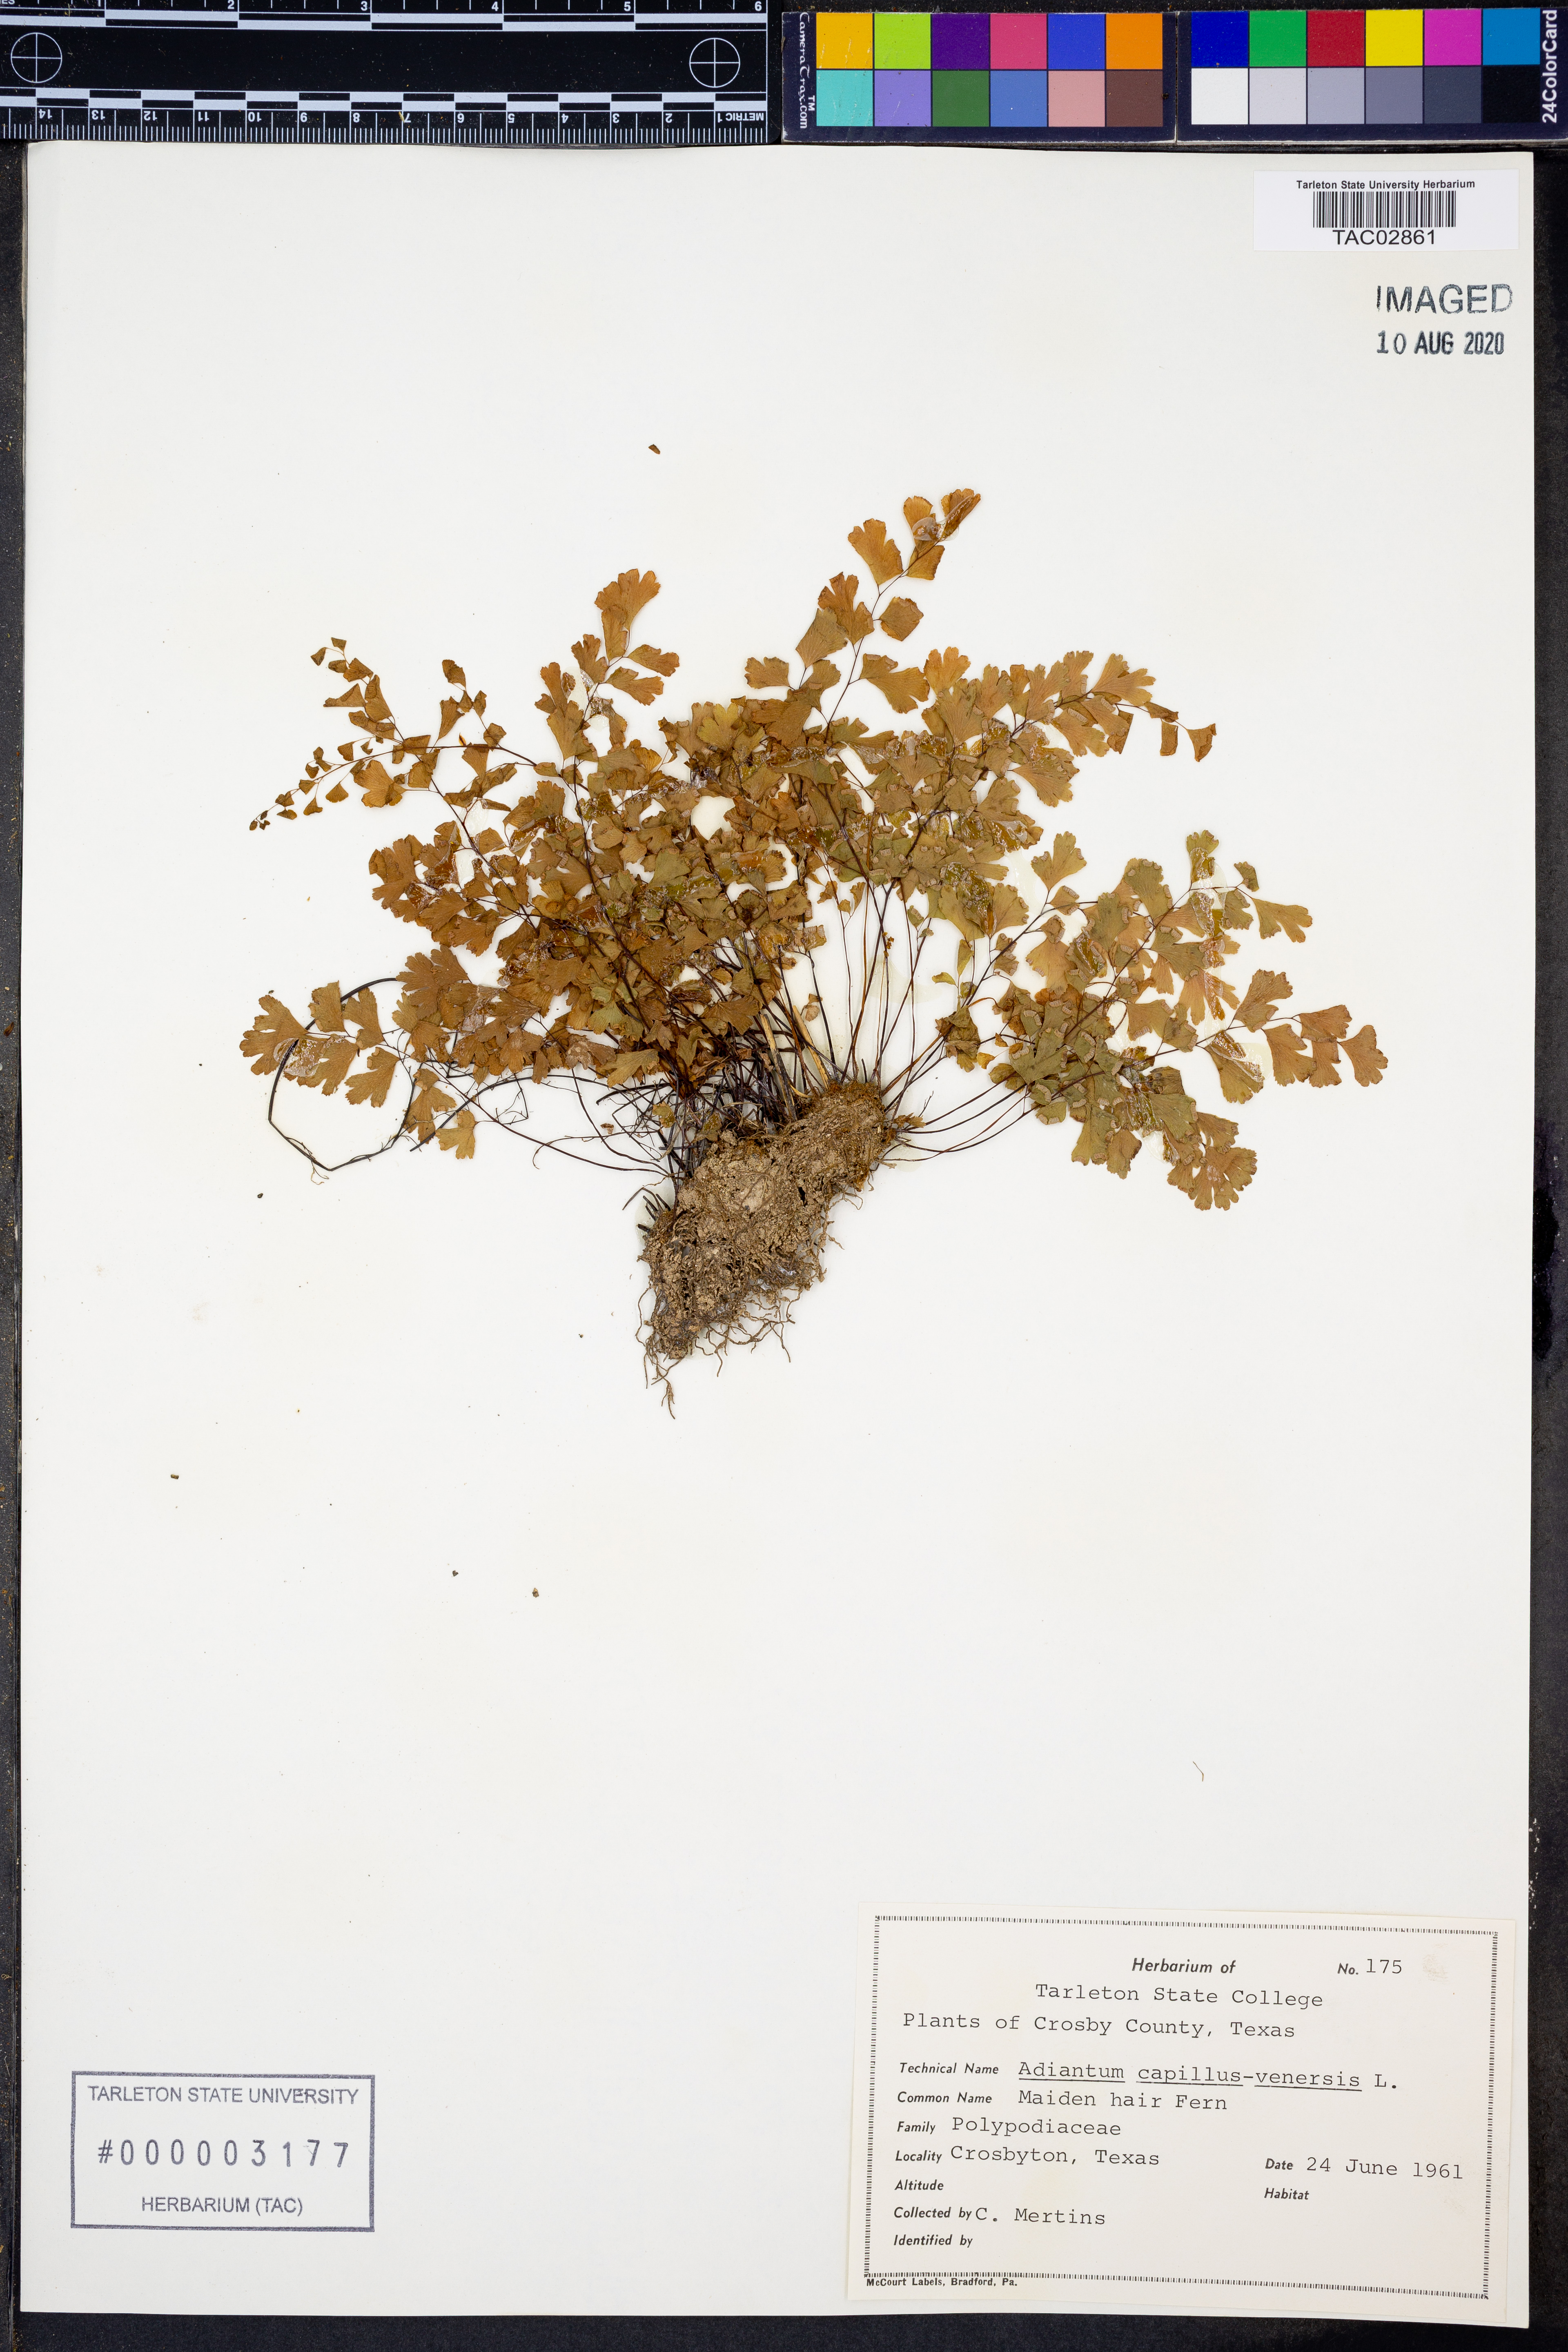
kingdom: Plantae
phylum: Tracheophyta
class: Polypodiopsida
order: Polypodiales
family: Pteridaceae
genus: Adiantum
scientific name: Adiantum capillus-veneris
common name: Maidenhair fern
